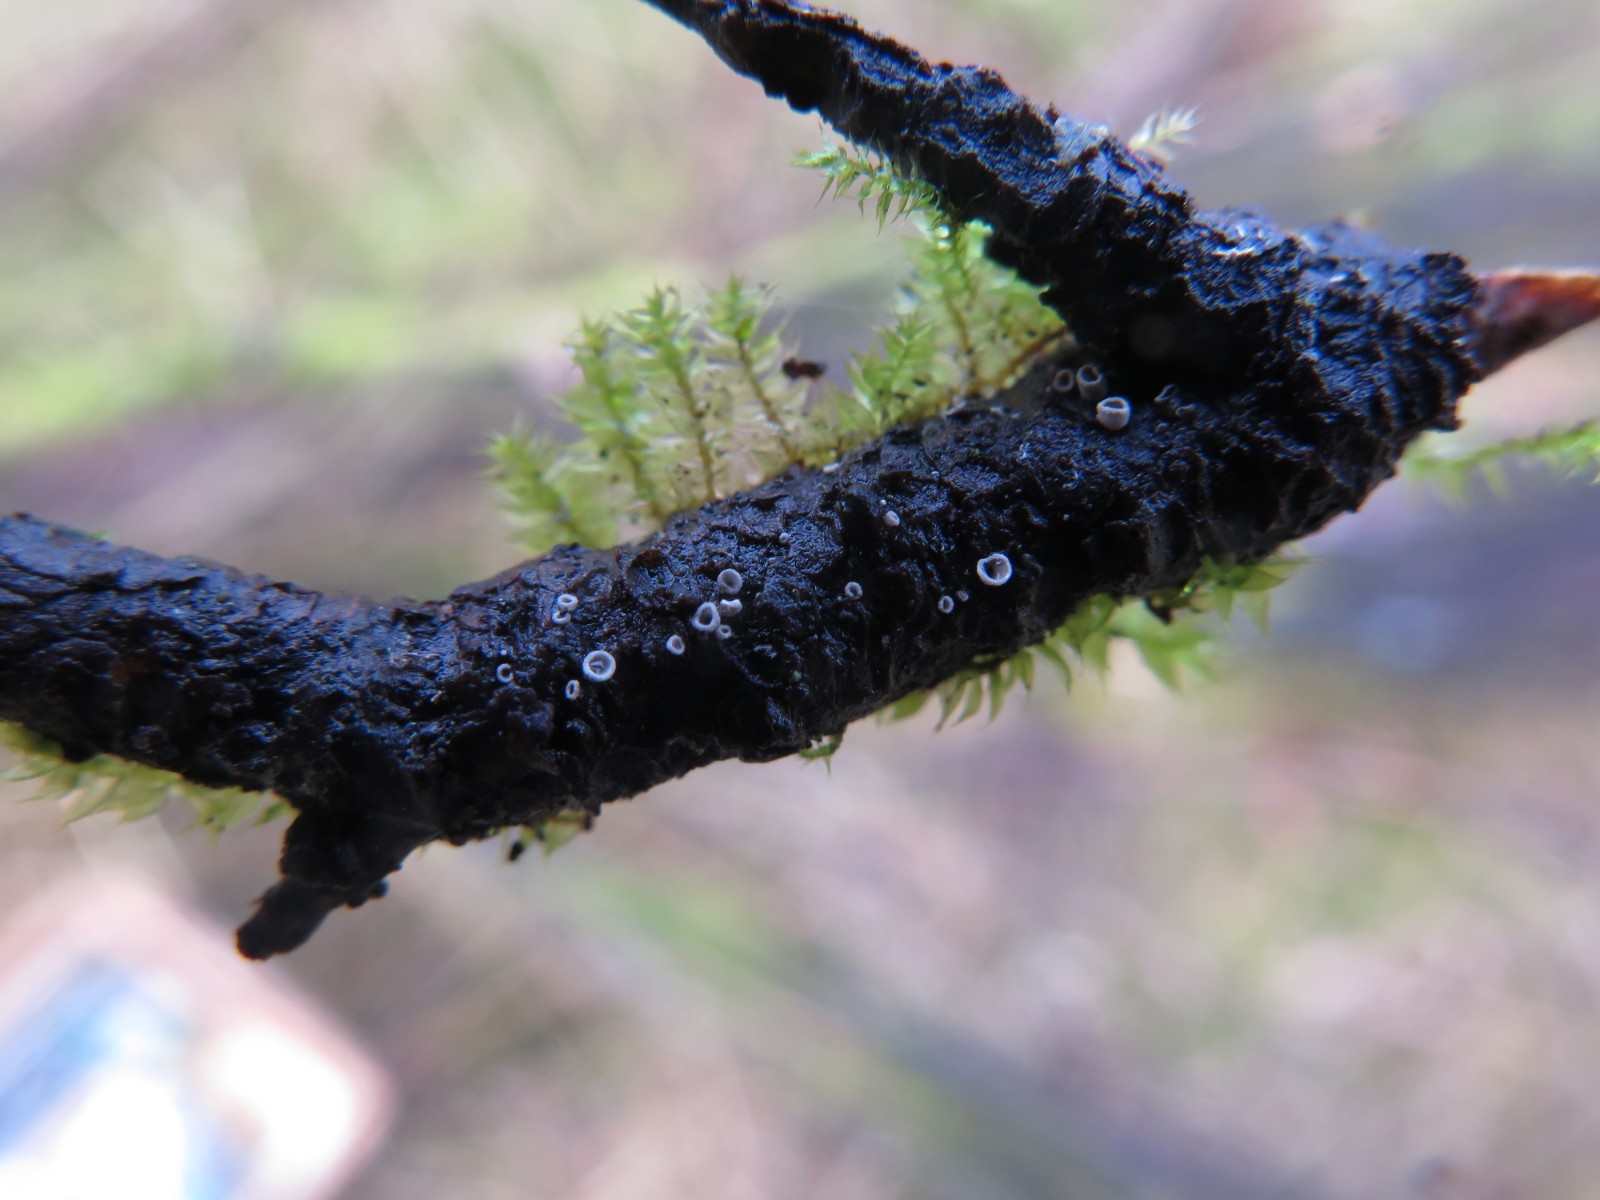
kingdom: Fungi
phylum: Basidiomycota
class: Agaricomycetes
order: Agaricales
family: Pleurotaceae
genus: Resupinatus
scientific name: Resupinatus griseopallidus
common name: ene-barkhat
